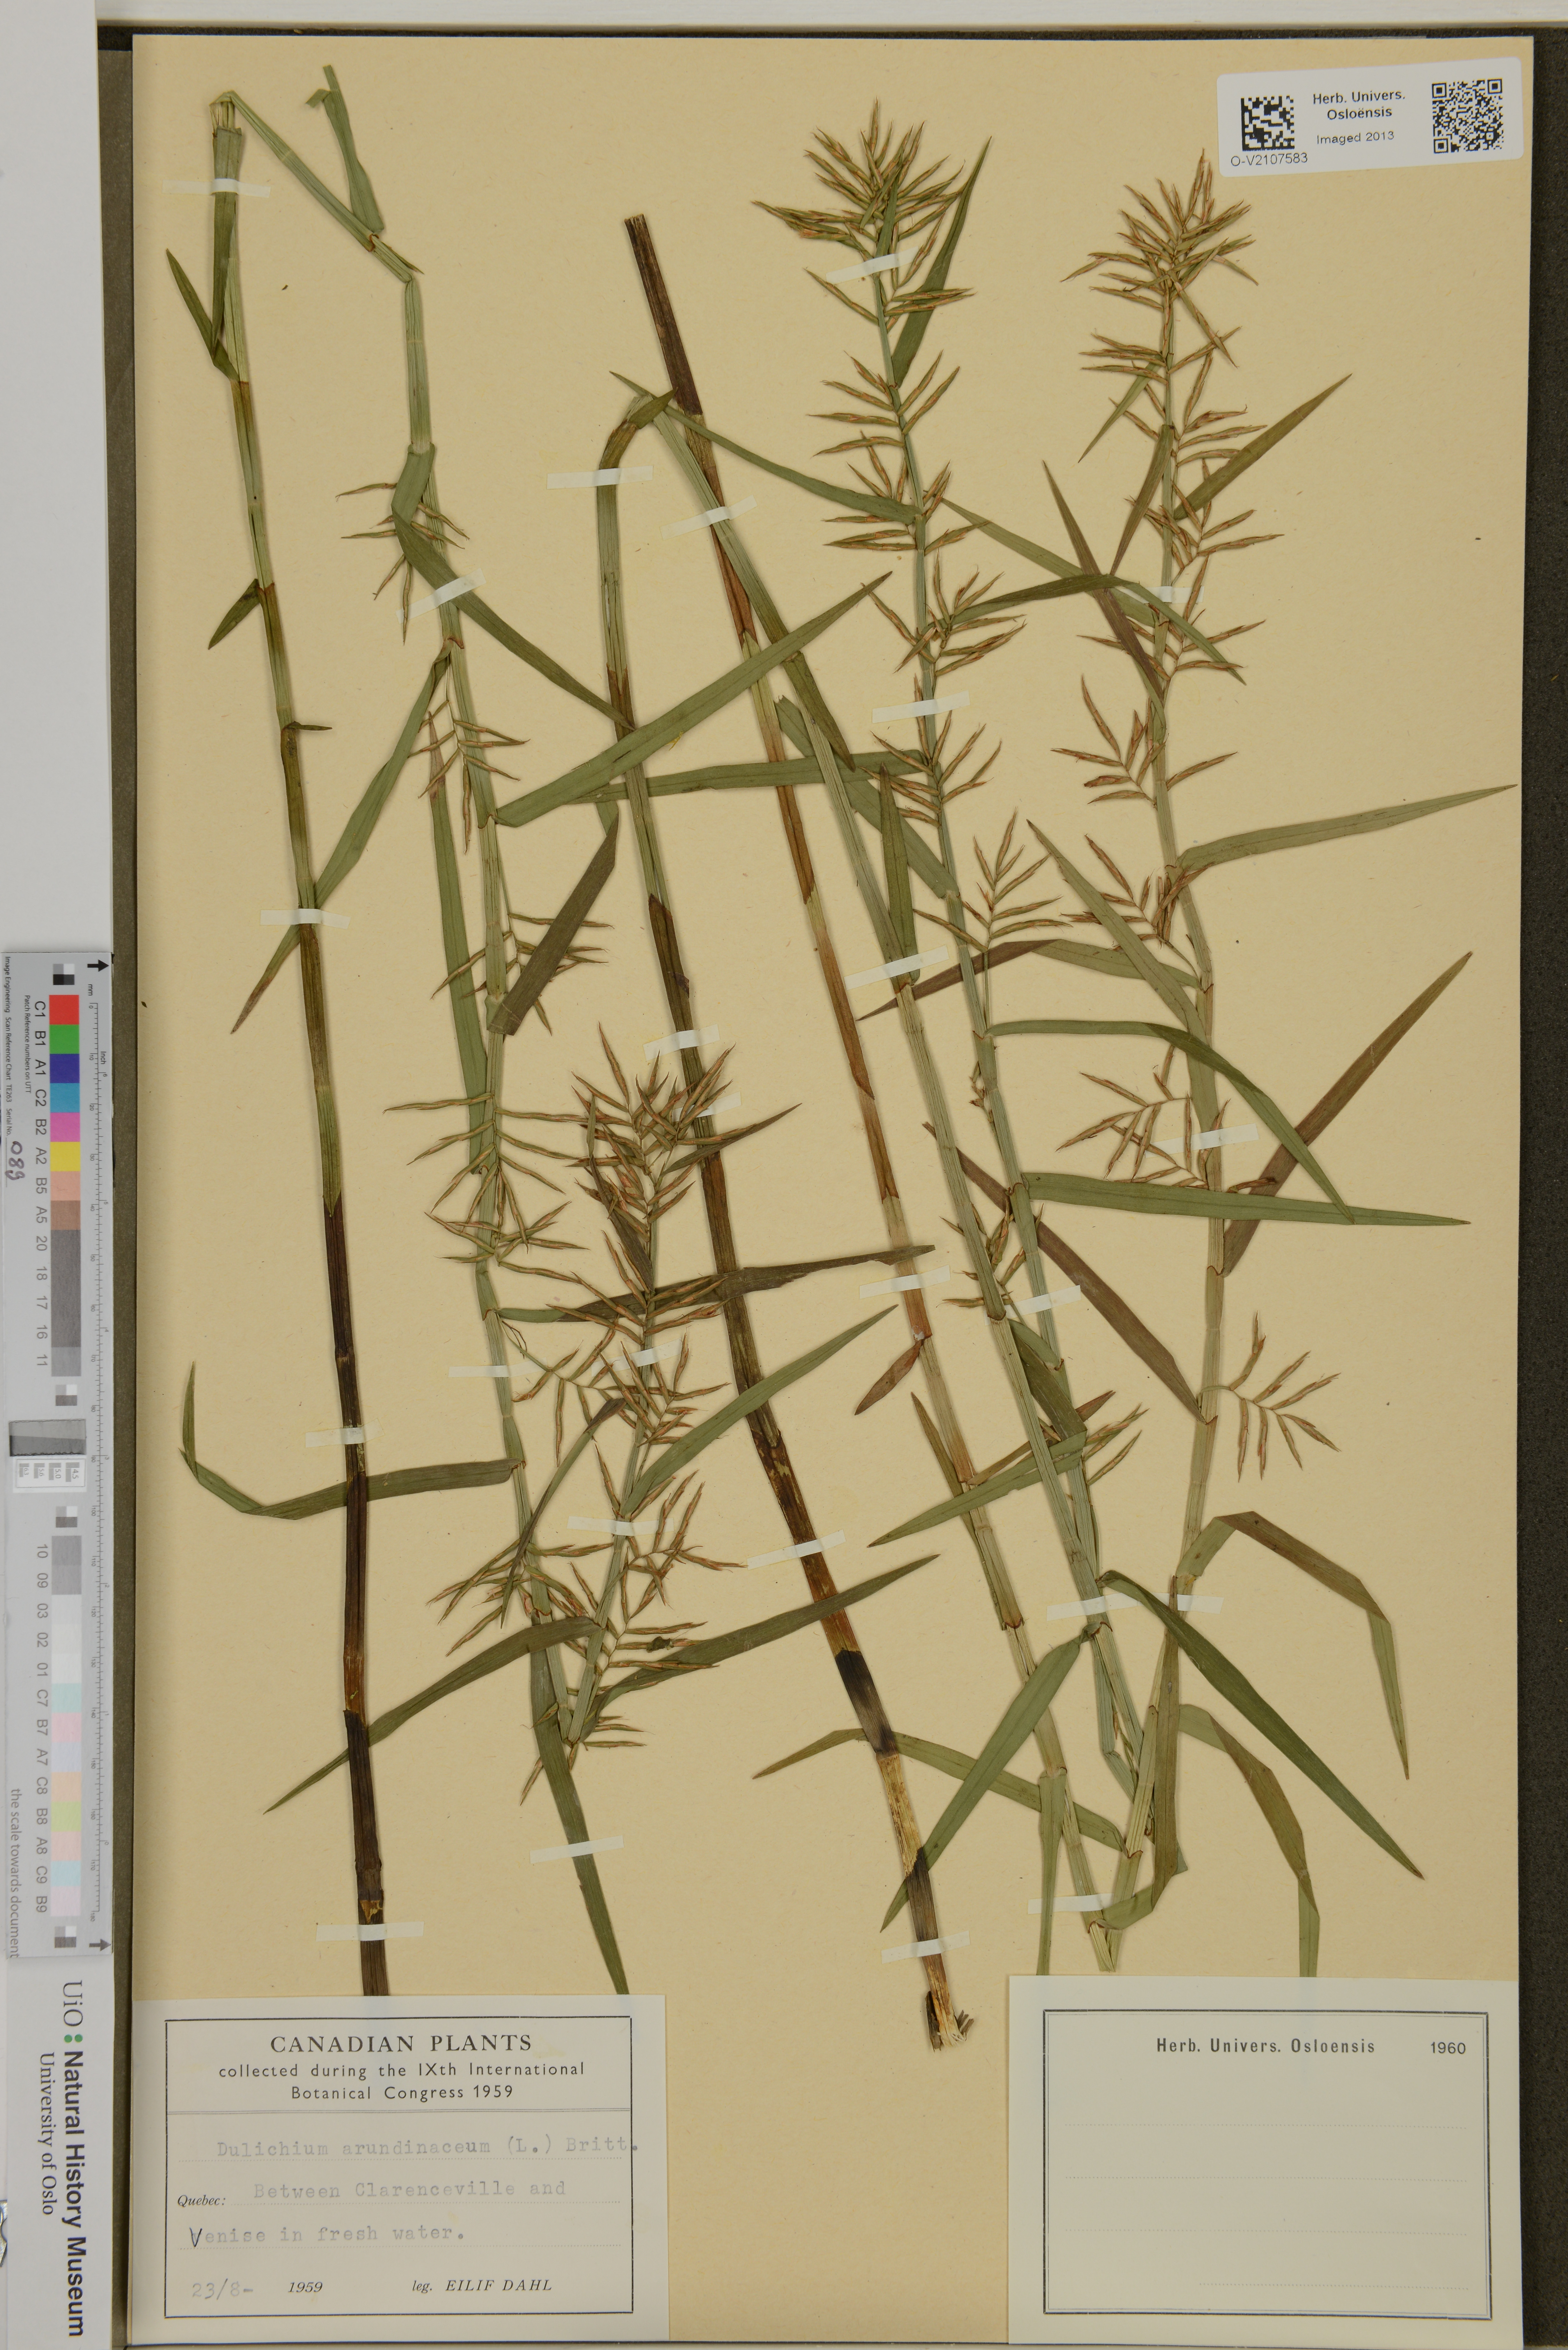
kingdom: Plantae
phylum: Tracheophyta
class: Liliopsida
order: Poales
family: Cyperaceae
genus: Dulichium
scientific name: Dulichium arundinaceum
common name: Three-way sedge
